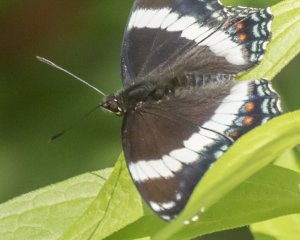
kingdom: Animalia
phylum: Arthropoda
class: Insecta
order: Lepidoptera
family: Nymphalidae
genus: Limenitis
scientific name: Limenitis arthemis
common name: Red-spotted Admiral
